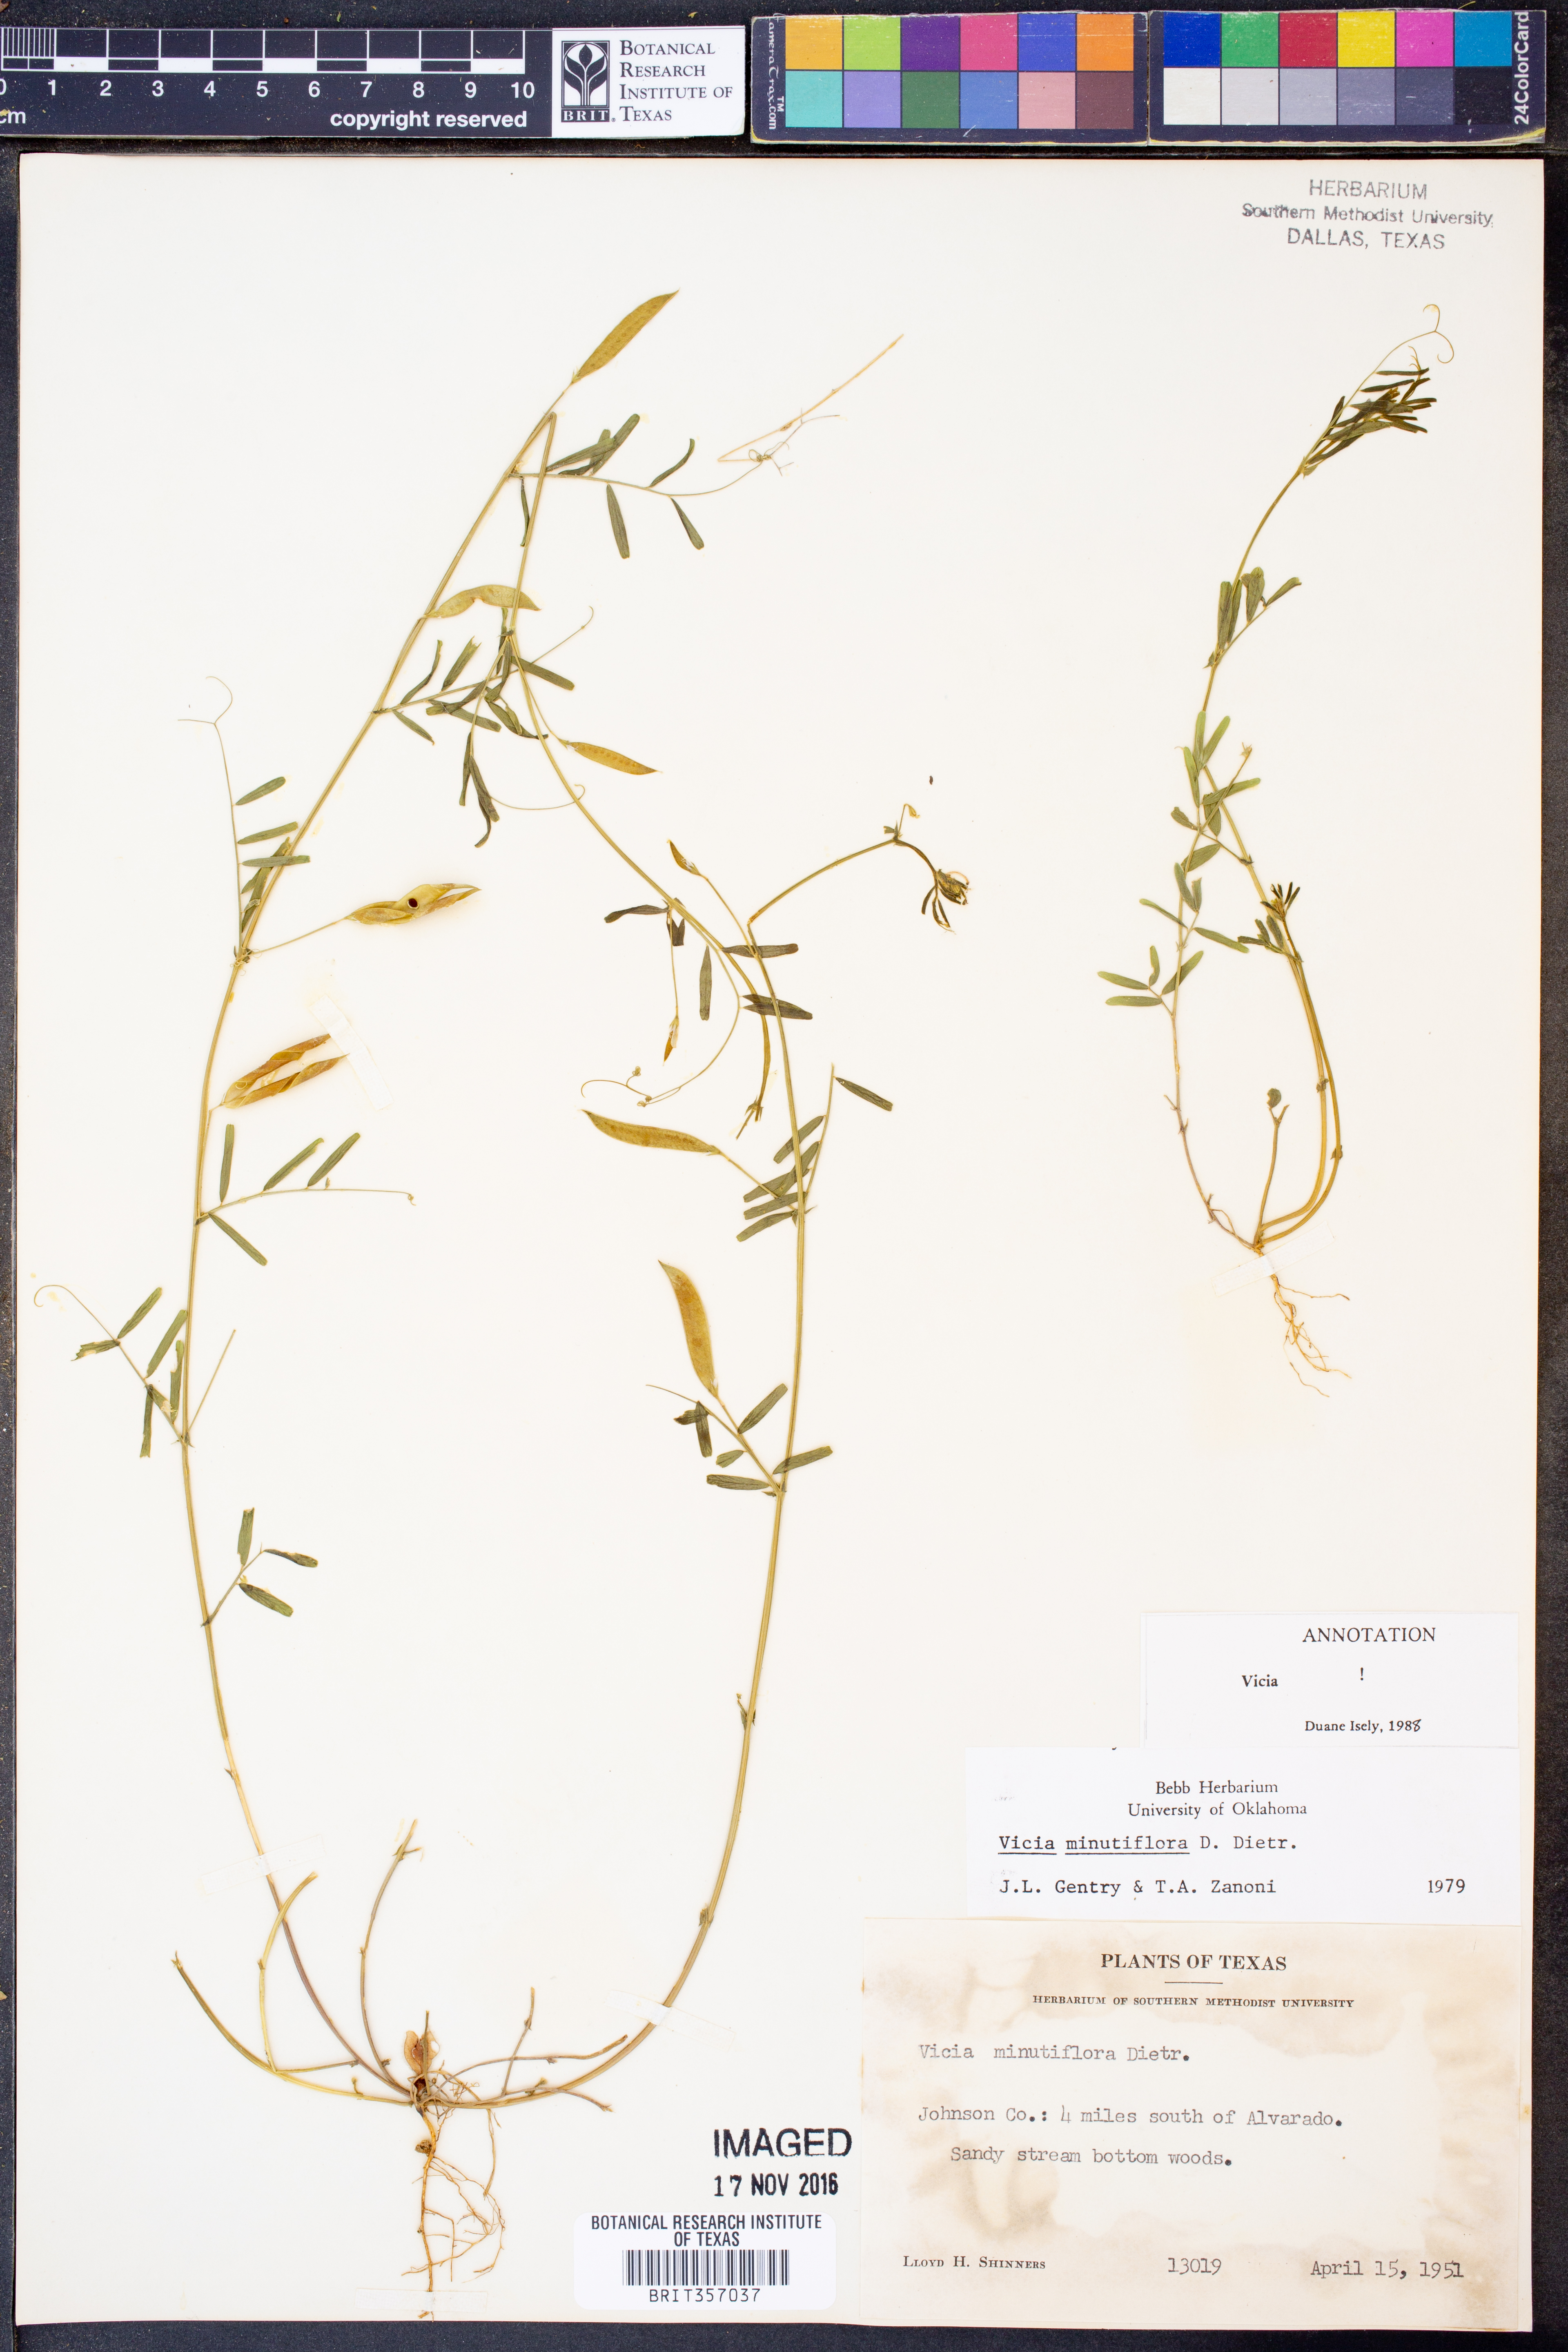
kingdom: Plantae
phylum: Tracheophyta
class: Magnoliopsida
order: Fabales
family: Fabaceae
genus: Vicia
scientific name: Vicia minutiflora
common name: Pygmy-flower vetch
